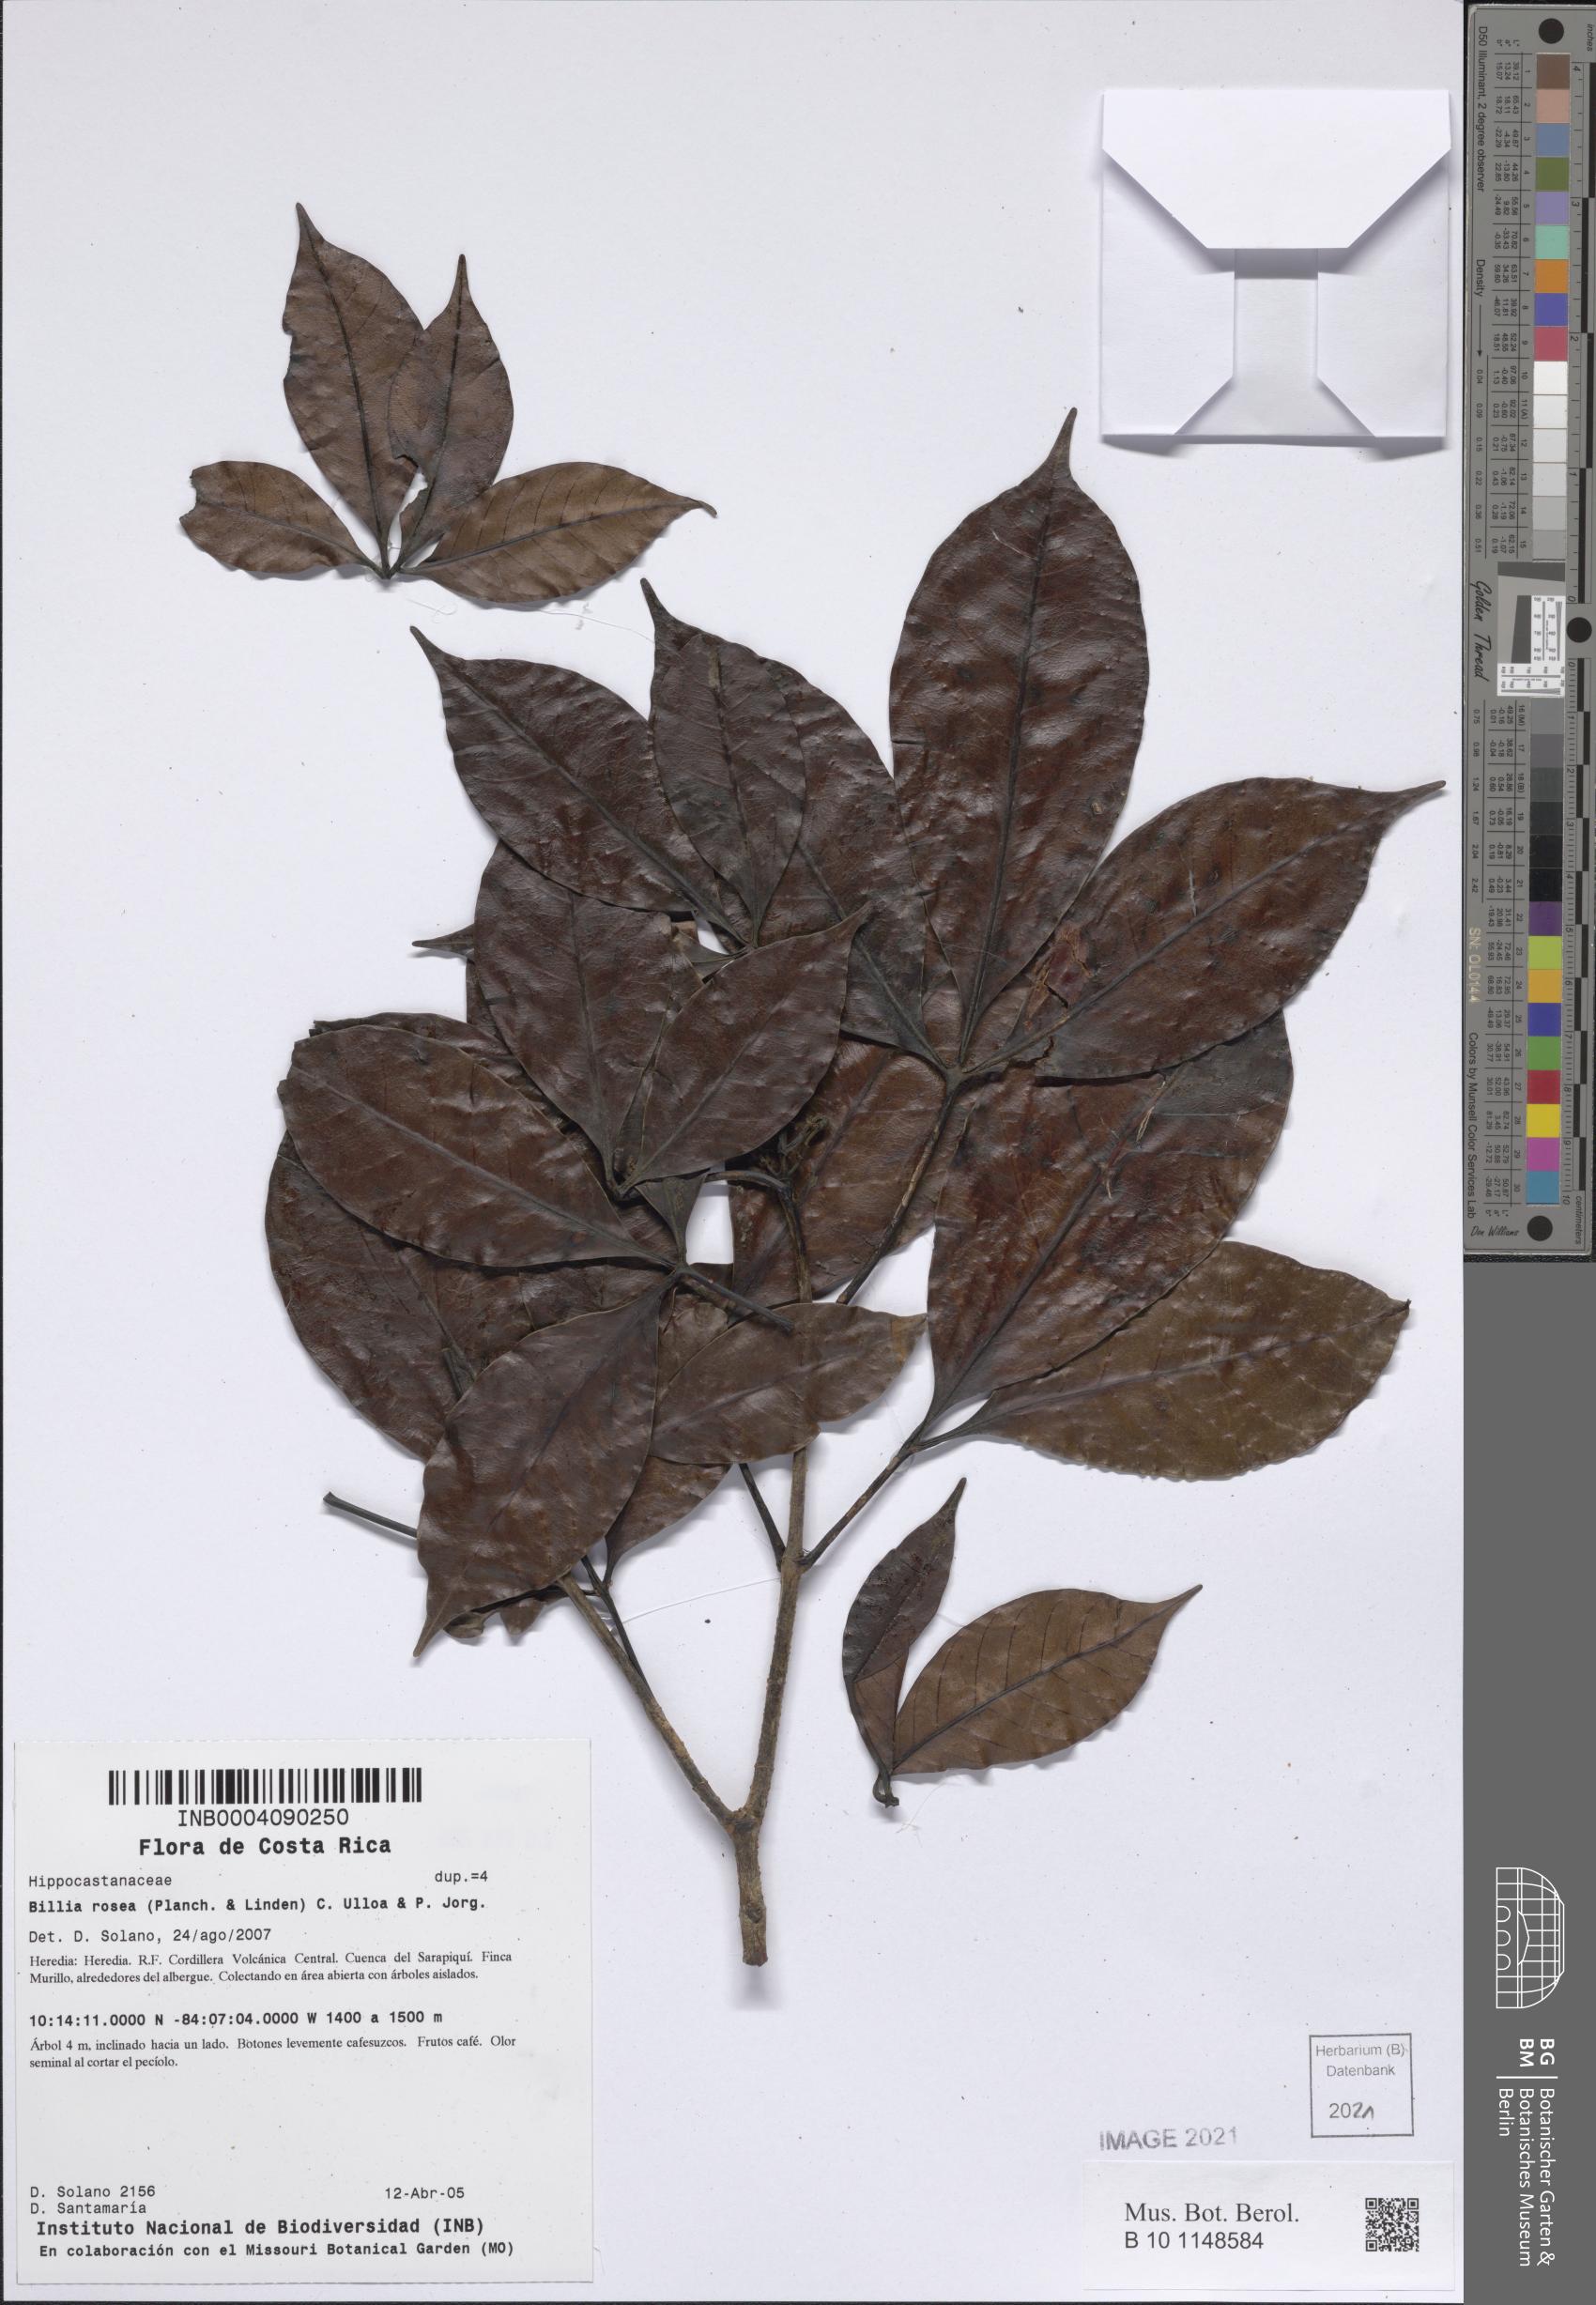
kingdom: Plantae
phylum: Tracheophyta
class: Magnoliopsida
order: Sapindales
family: Sapindaceae
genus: Billia
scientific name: Billia rosea
